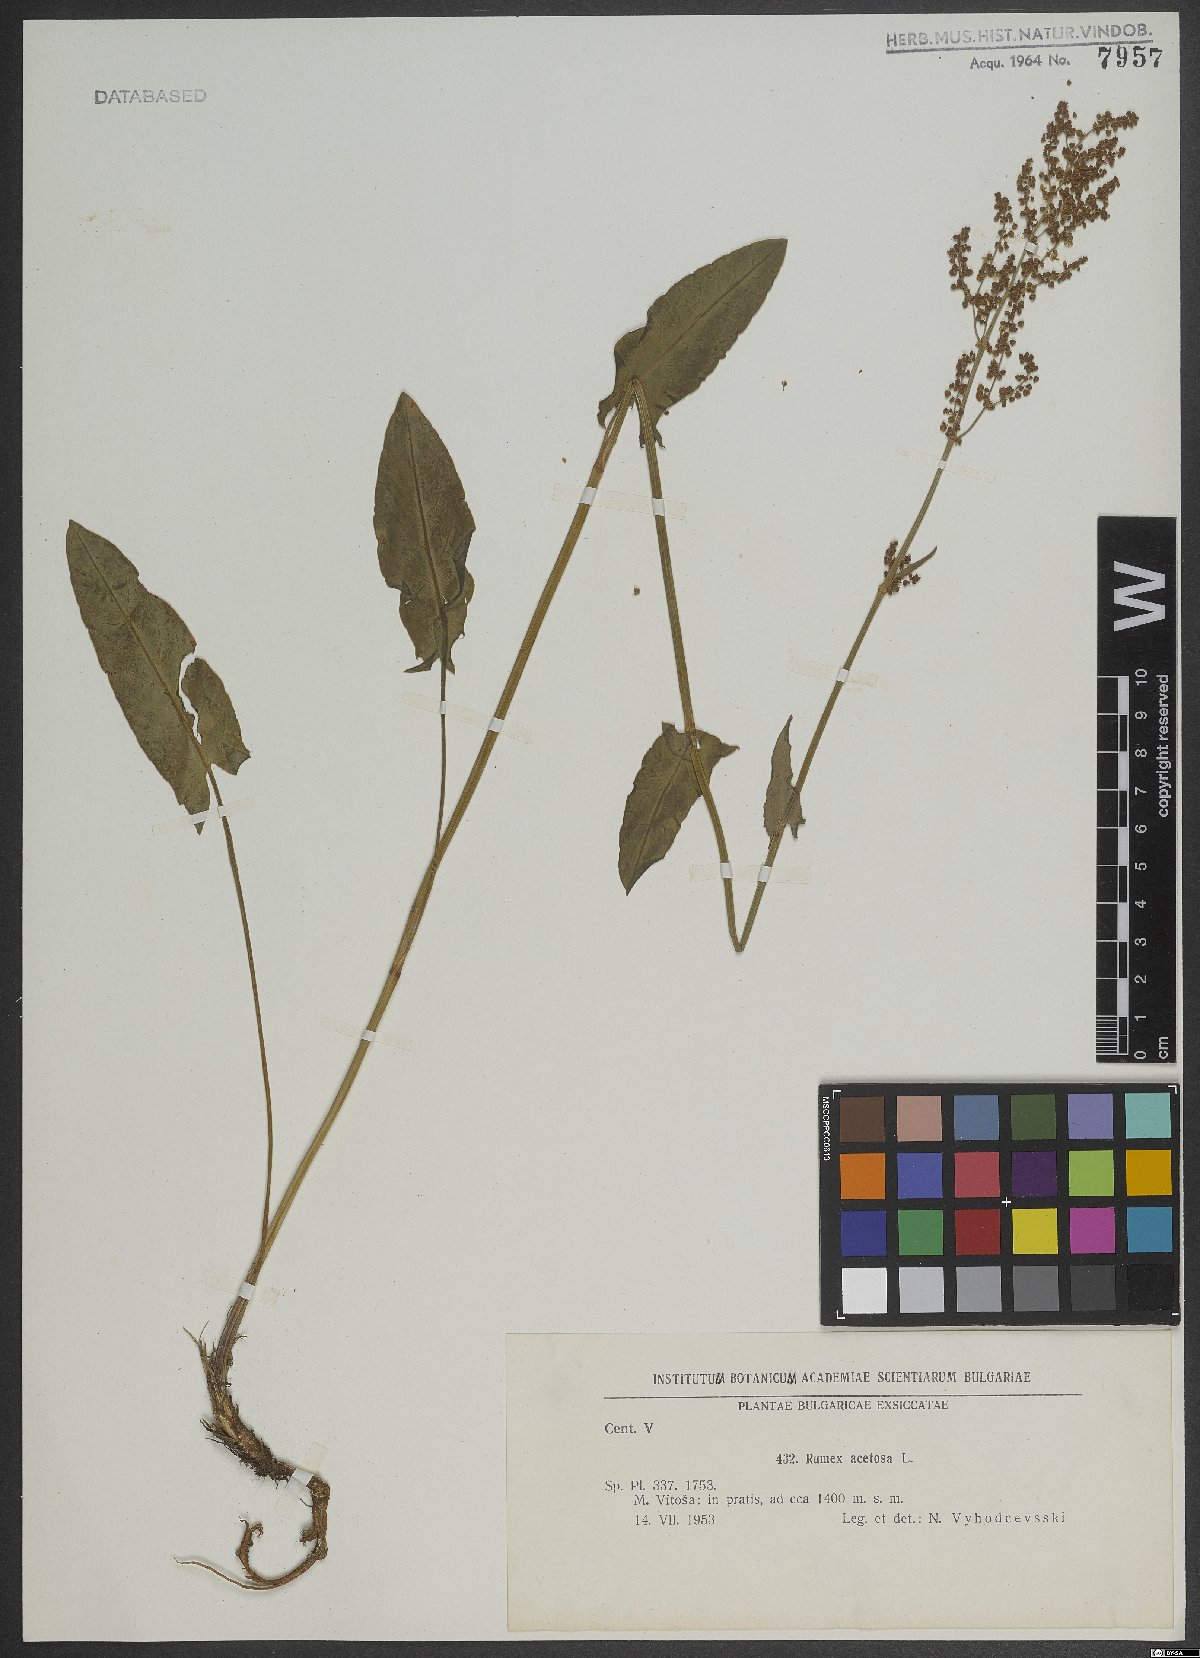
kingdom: Plantae
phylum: Tracheophyta
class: Magnoliopsida
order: Caryophyllales
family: Polygonaceae
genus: Rumex
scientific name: Rumex acetosa
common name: Garden sorrel
